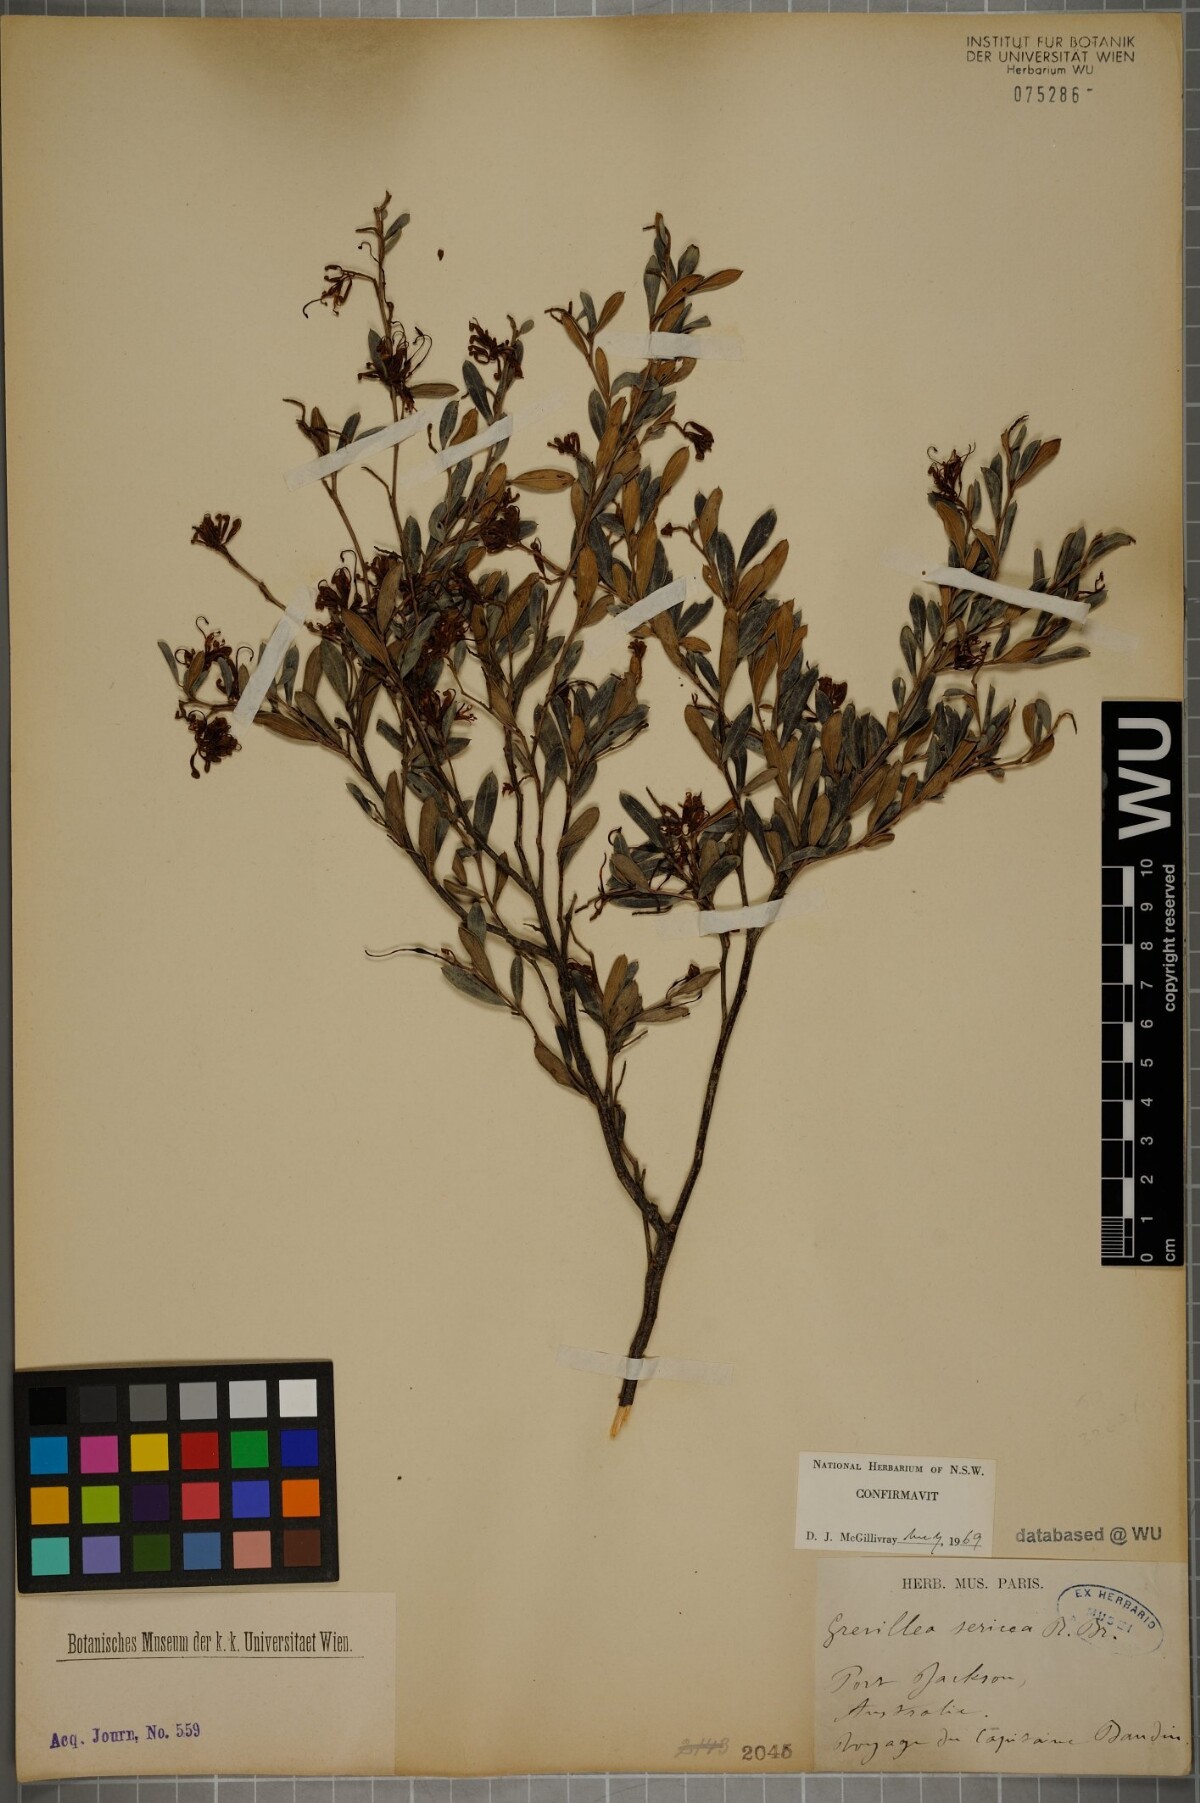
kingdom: Plantae
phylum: Tracheophyta
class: Magnoliopsida
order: Proteales
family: Proteaceae
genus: Grevillea
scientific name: Grevillea sericea
